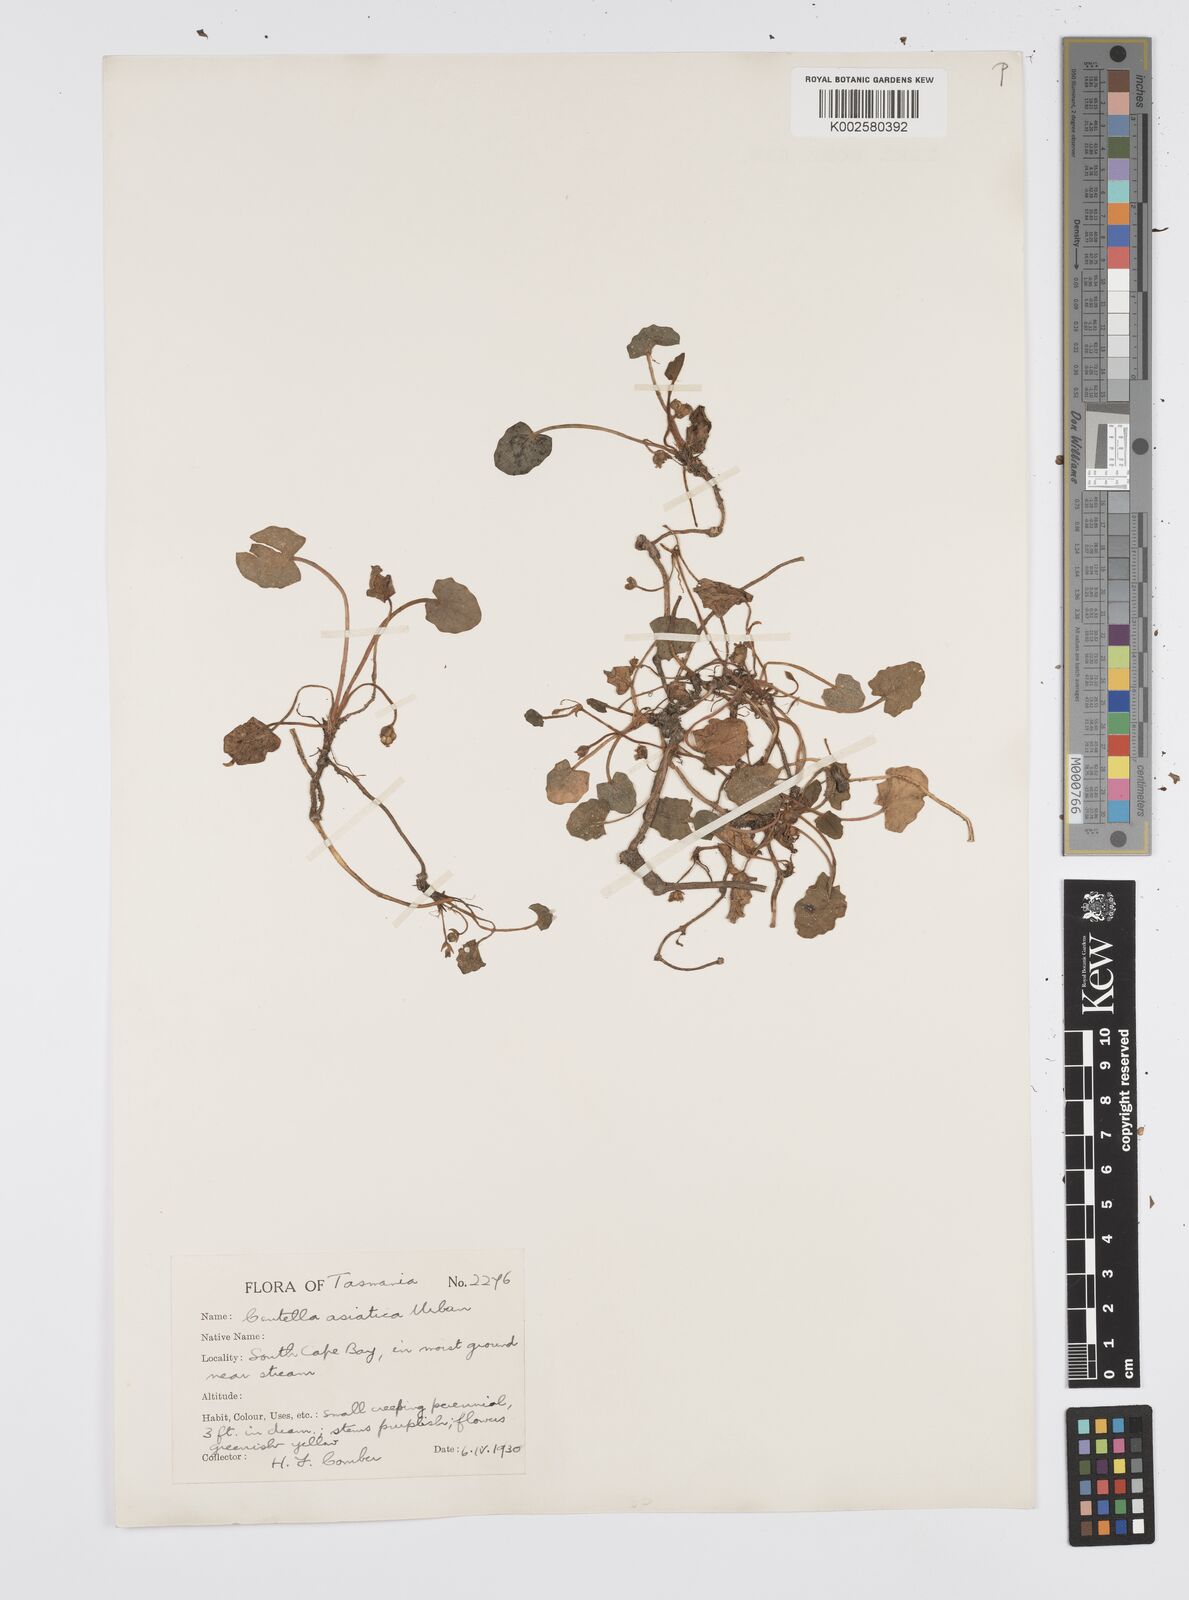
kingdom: Plantae
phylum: Tracheophyta
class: Magnoliopsida
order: Apiales
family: Apiaceae
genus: Centella
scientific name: Centella cordifolia
